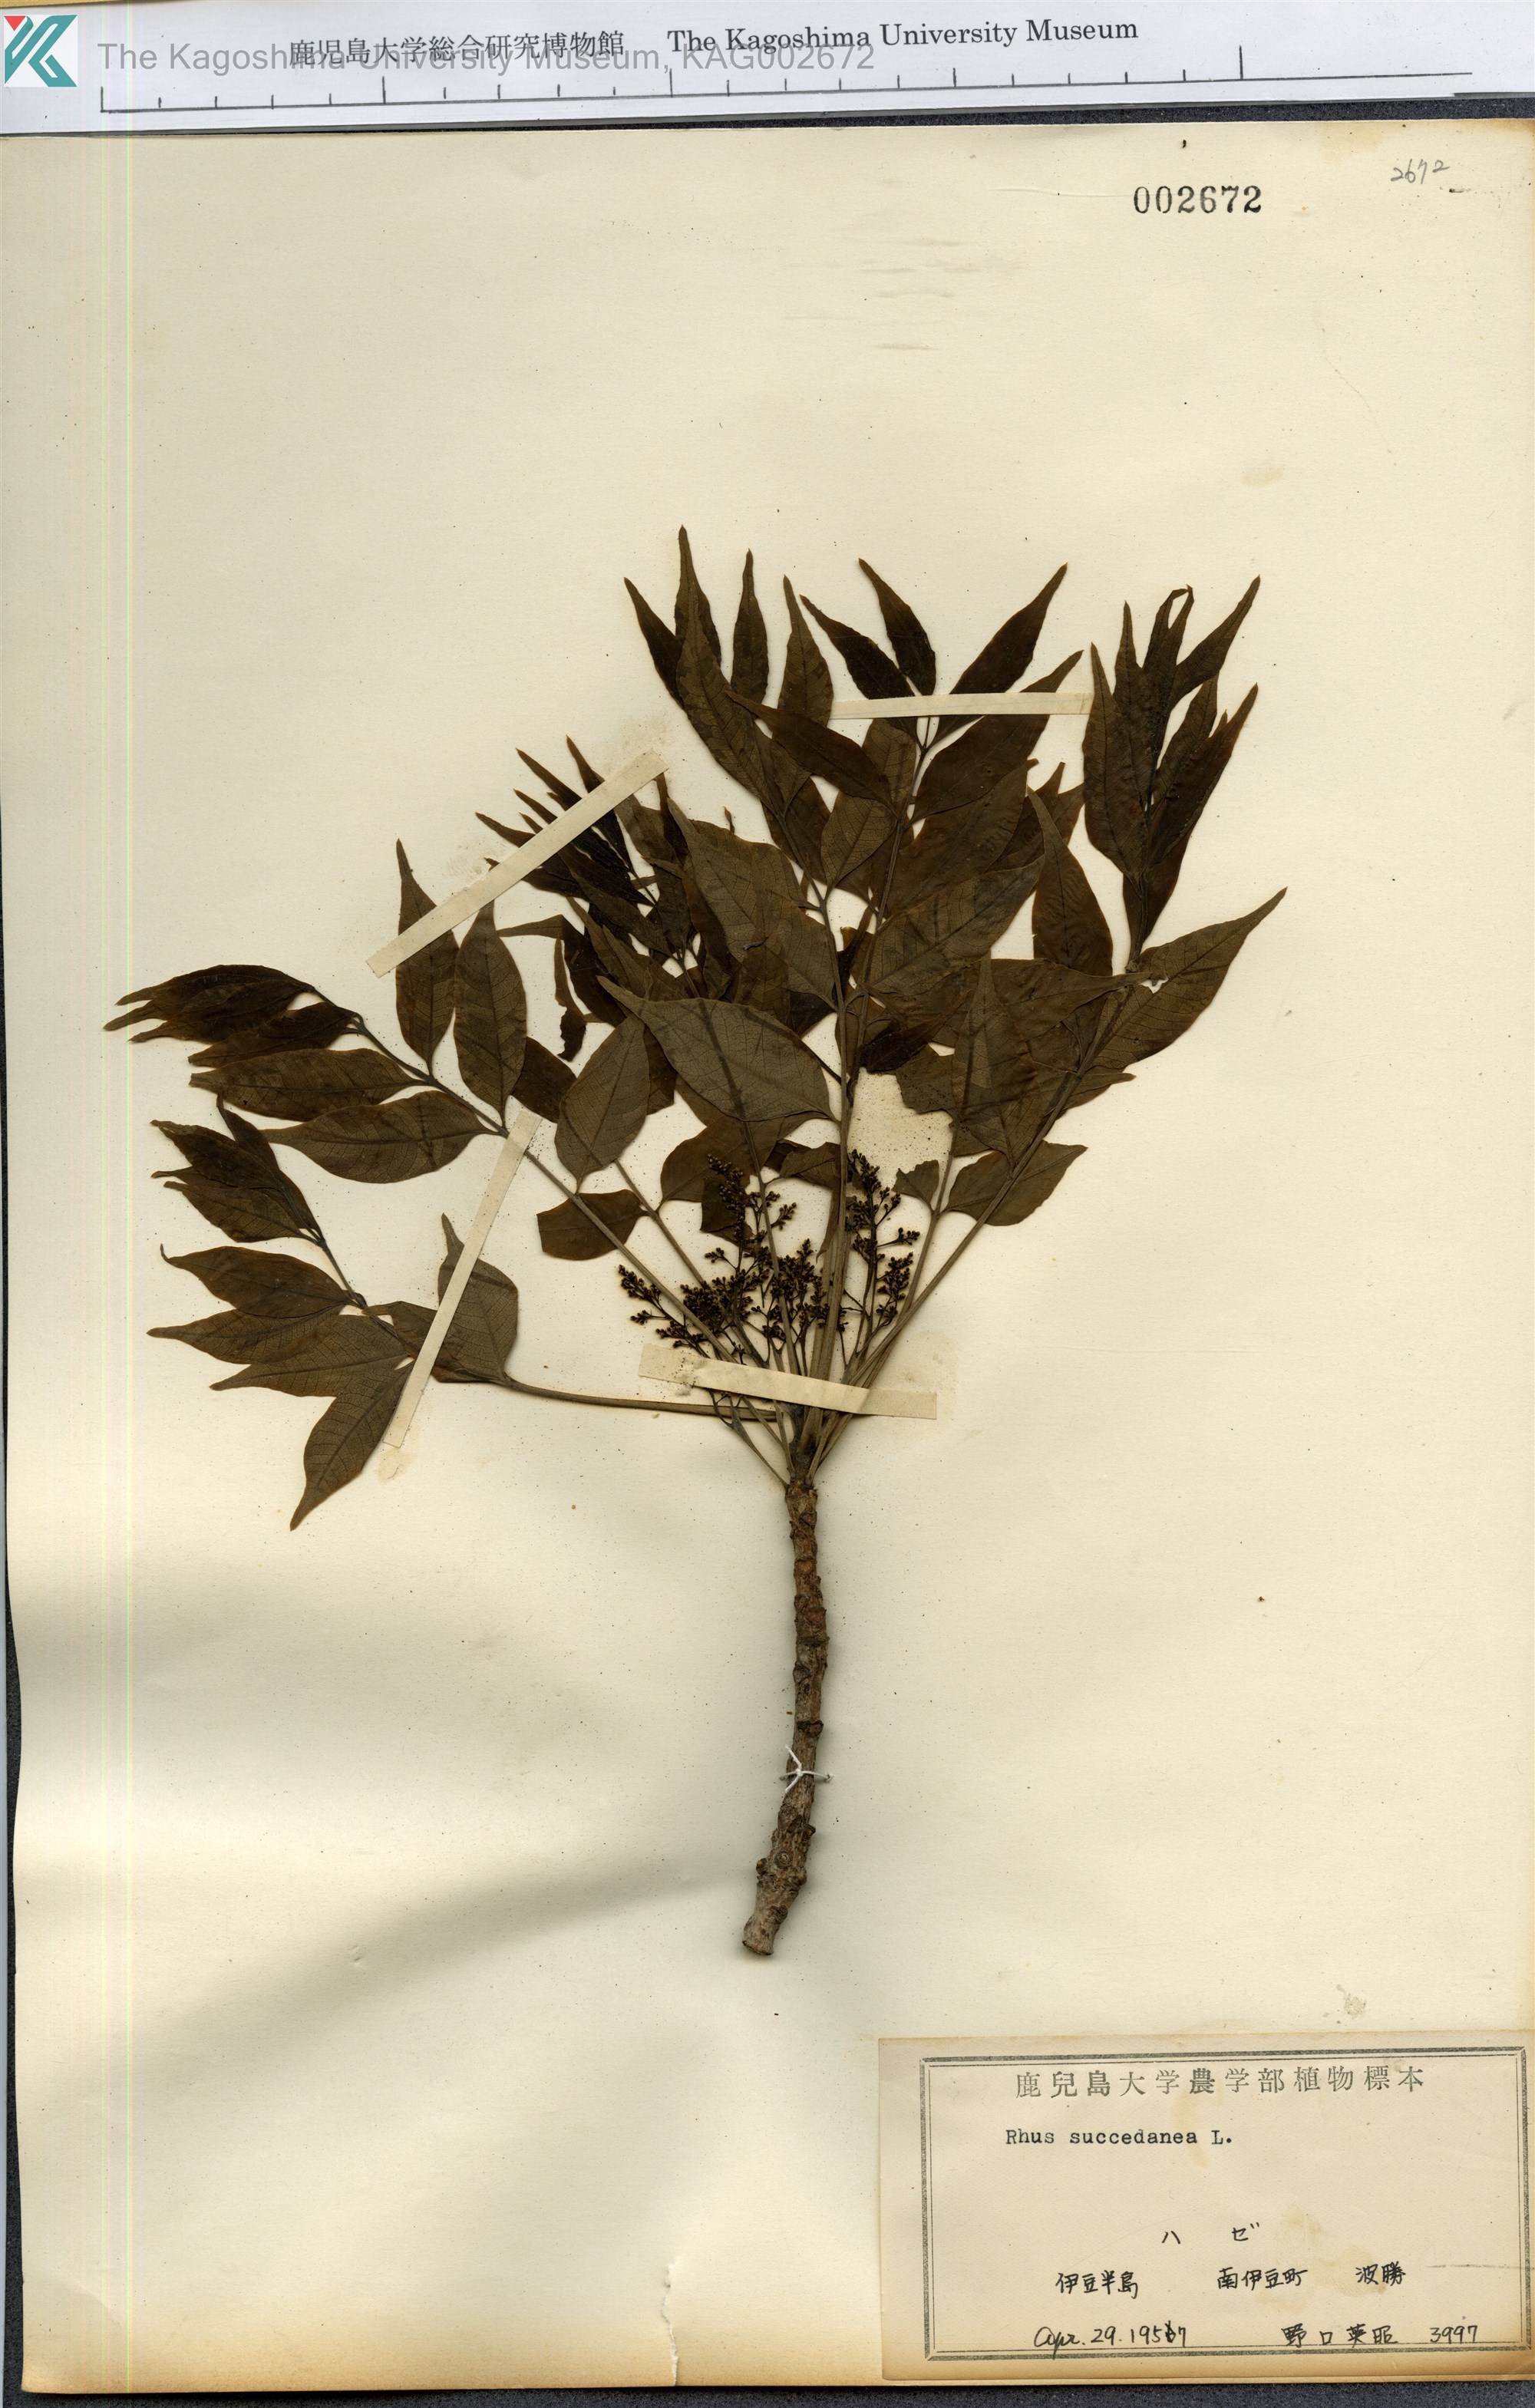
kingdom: Plantae
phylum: Tracheophyta
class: Magnoliopsida
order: Sapindales
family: Anacardiaceae
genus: Toxicodendron
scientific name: Toxicodendron succedaneum
